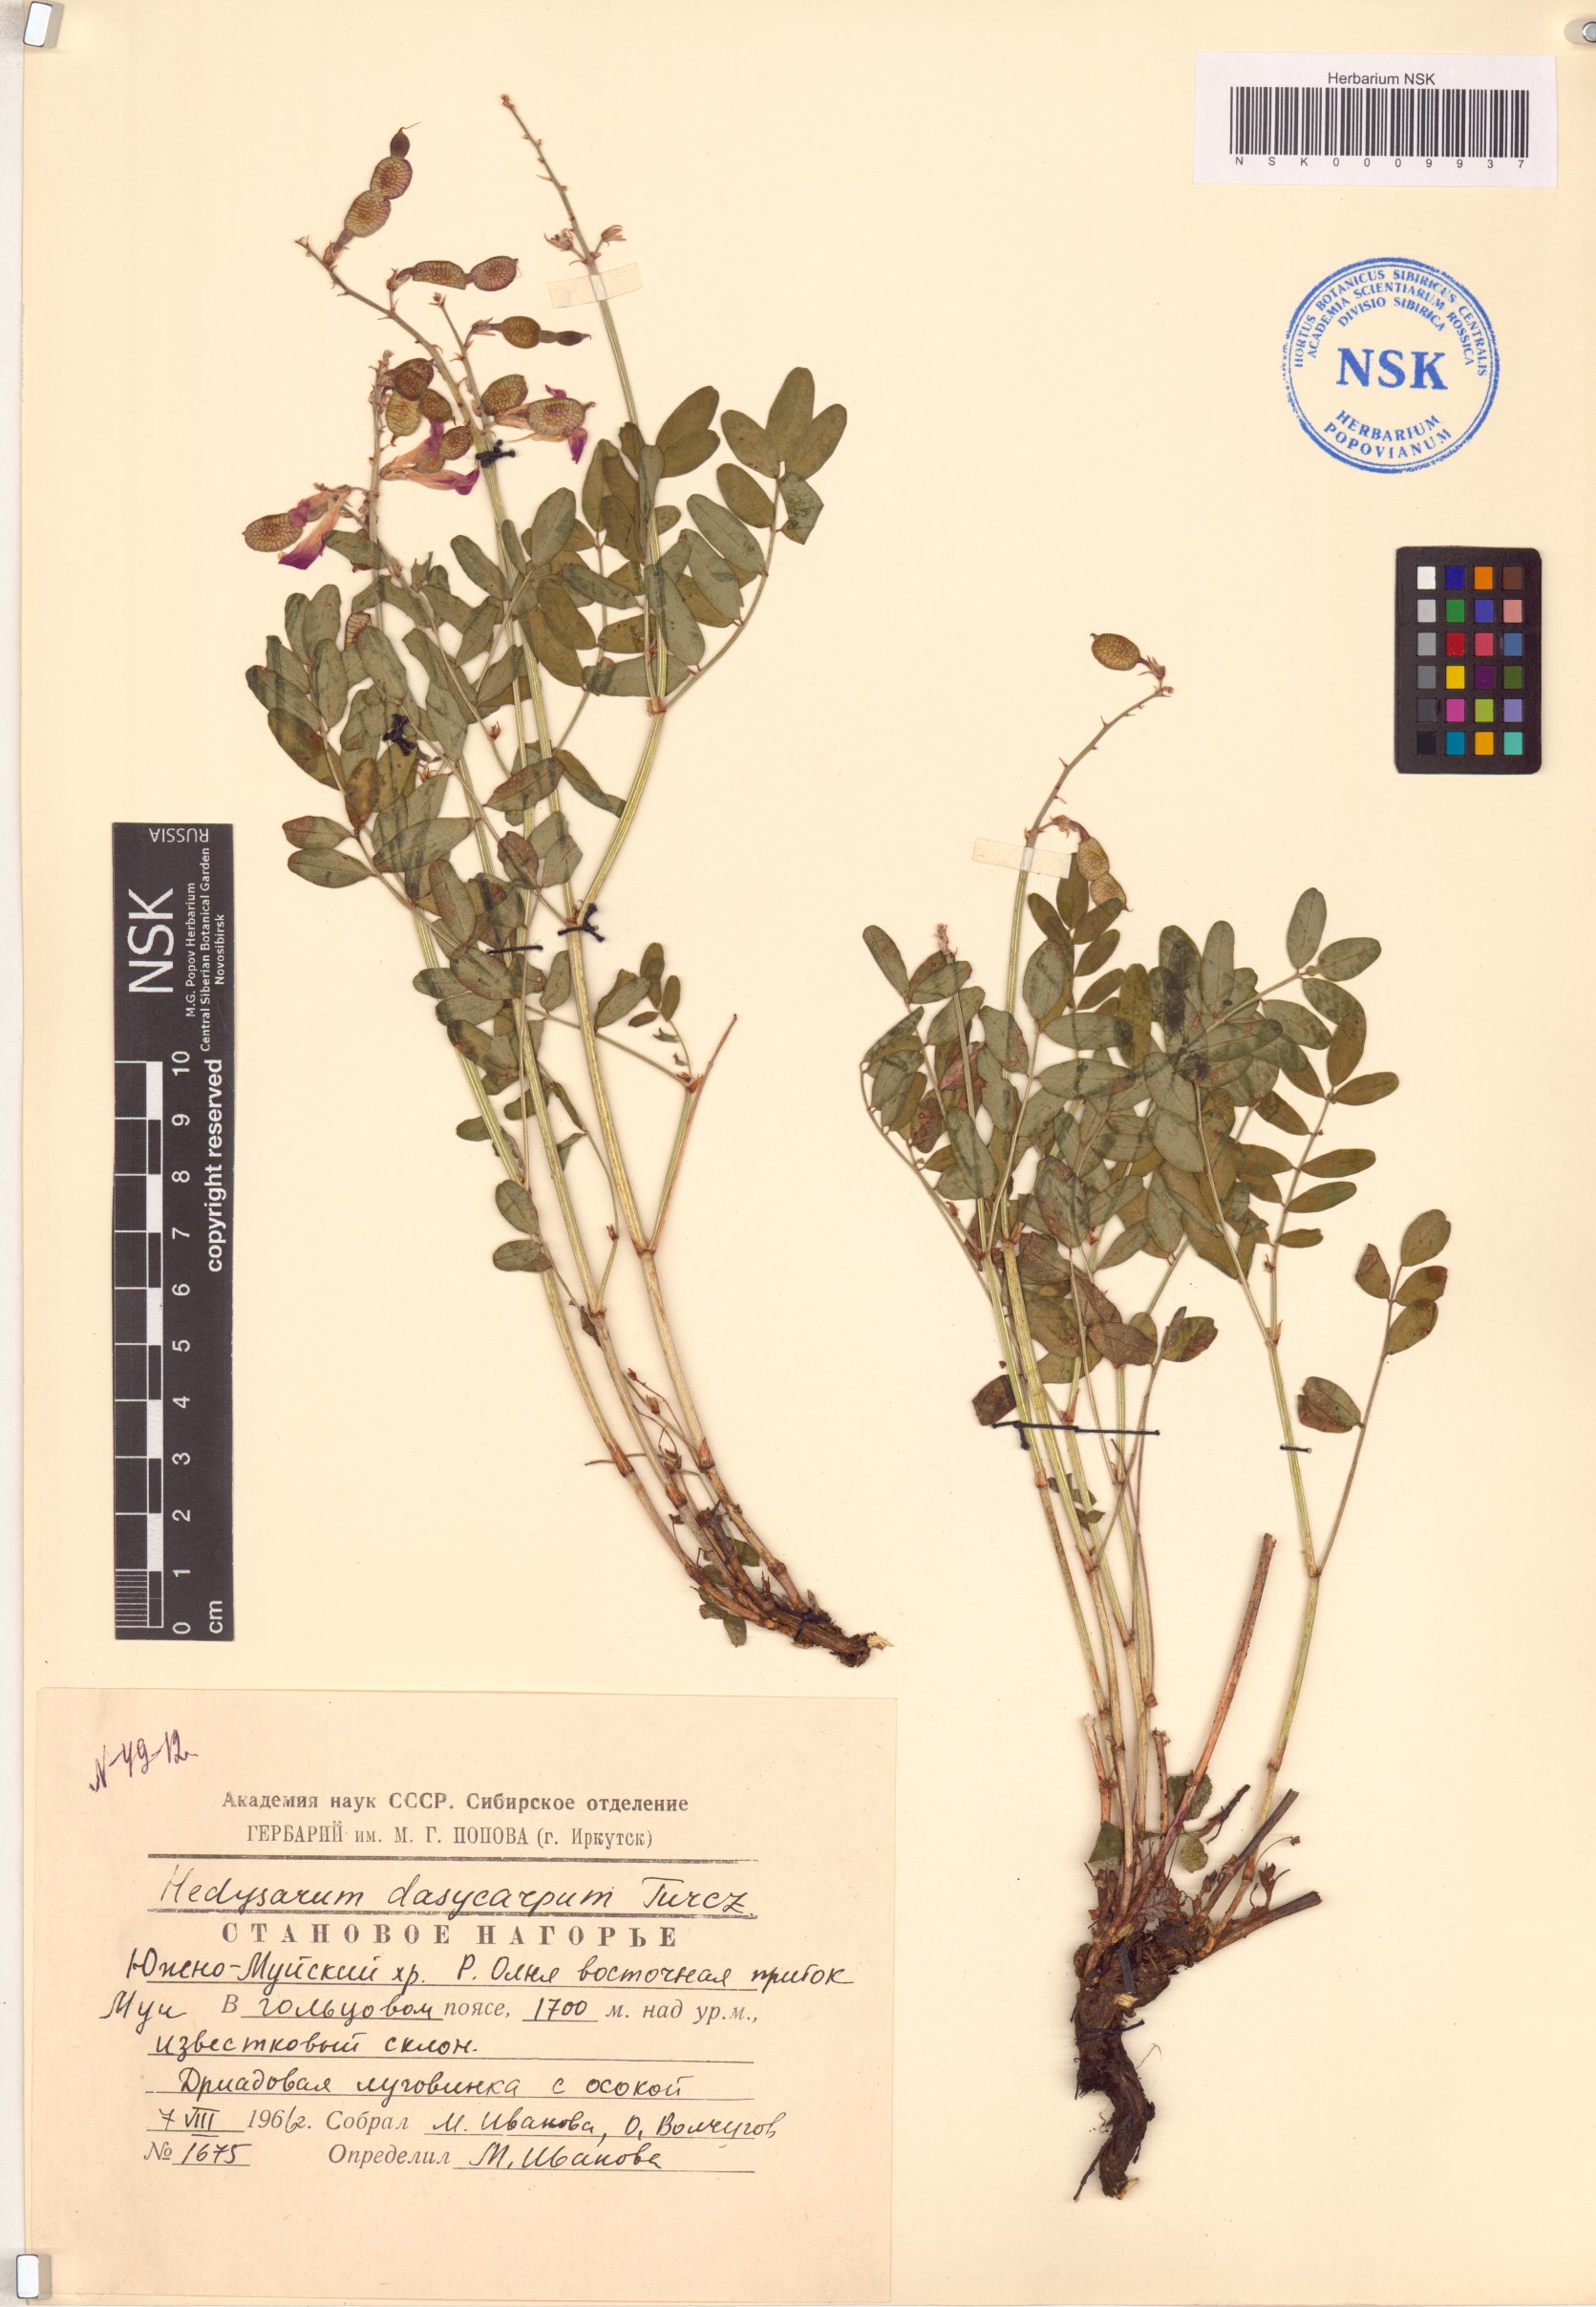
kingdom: Plantae
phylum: Tracheophyta
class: Magnoliopsida
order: Fabales
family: Fabaceae
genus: Hedysarum
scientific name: Hedysarum dasycarpum
